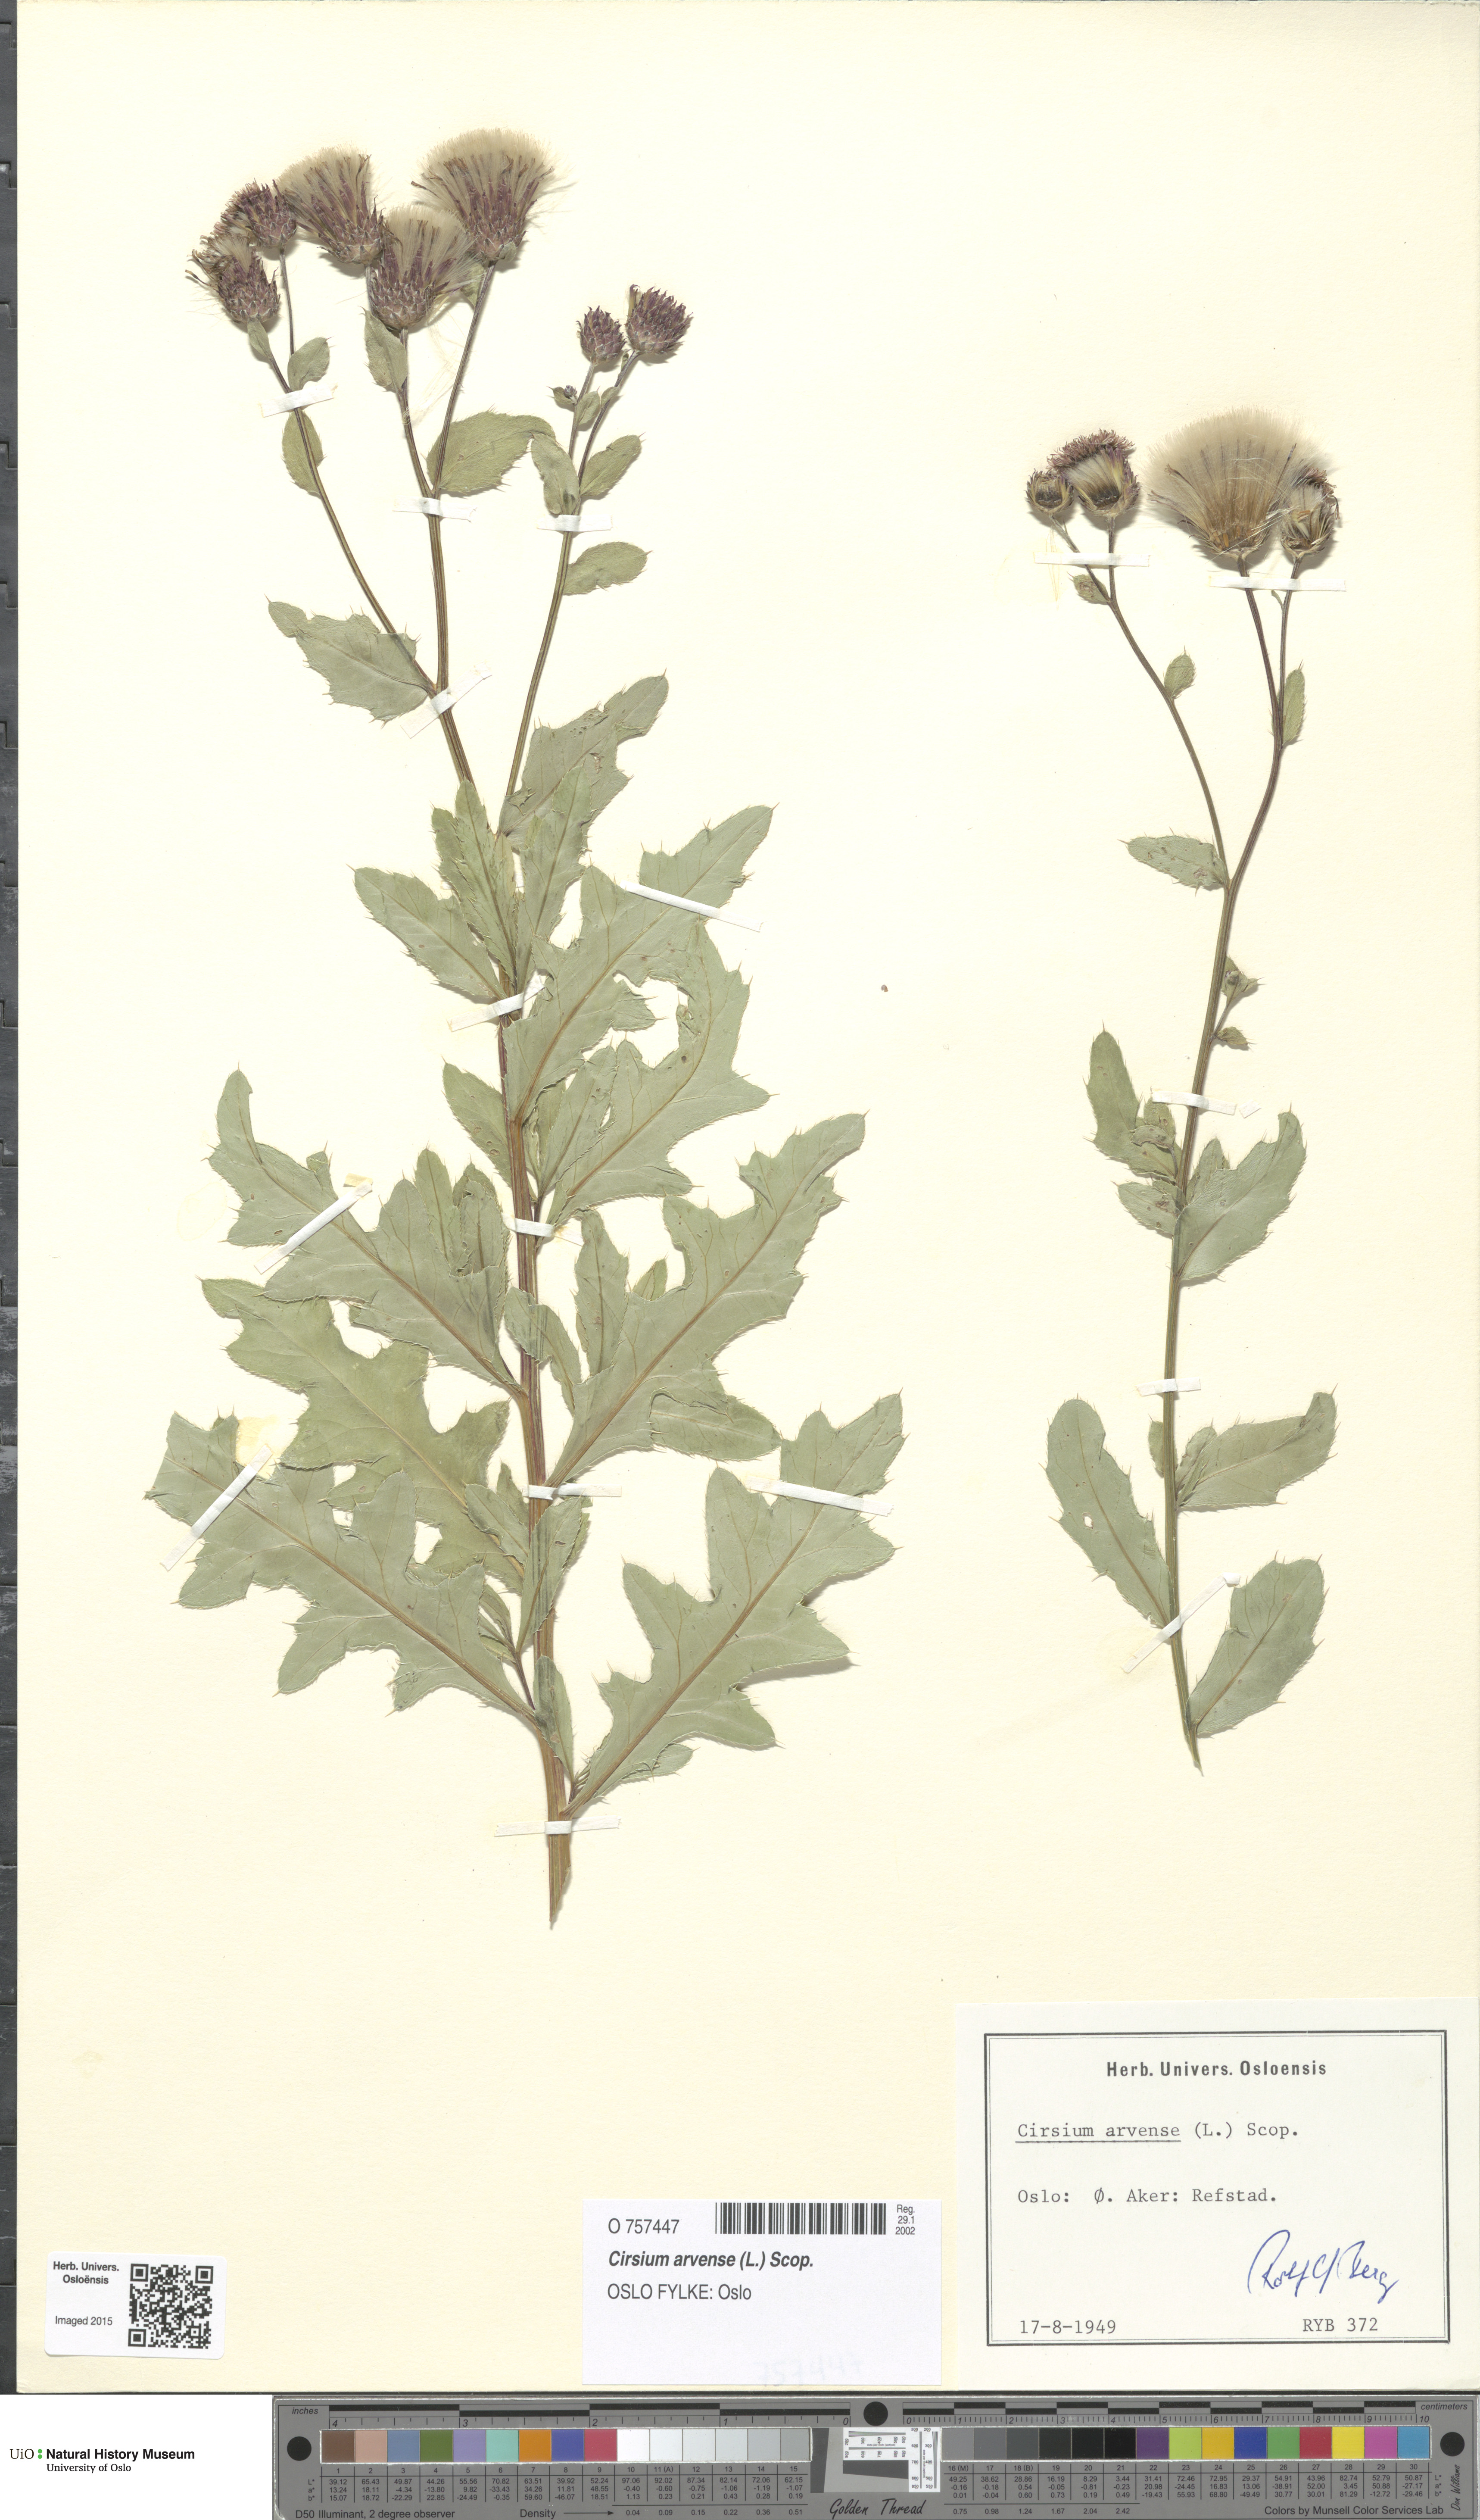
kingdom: Plantae
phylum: Tracheophyta
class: Magnoliopsida
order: Asterales
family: Asteraceae
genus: Cirsium
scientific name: Cirsium arvense
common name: Creeping thistle
